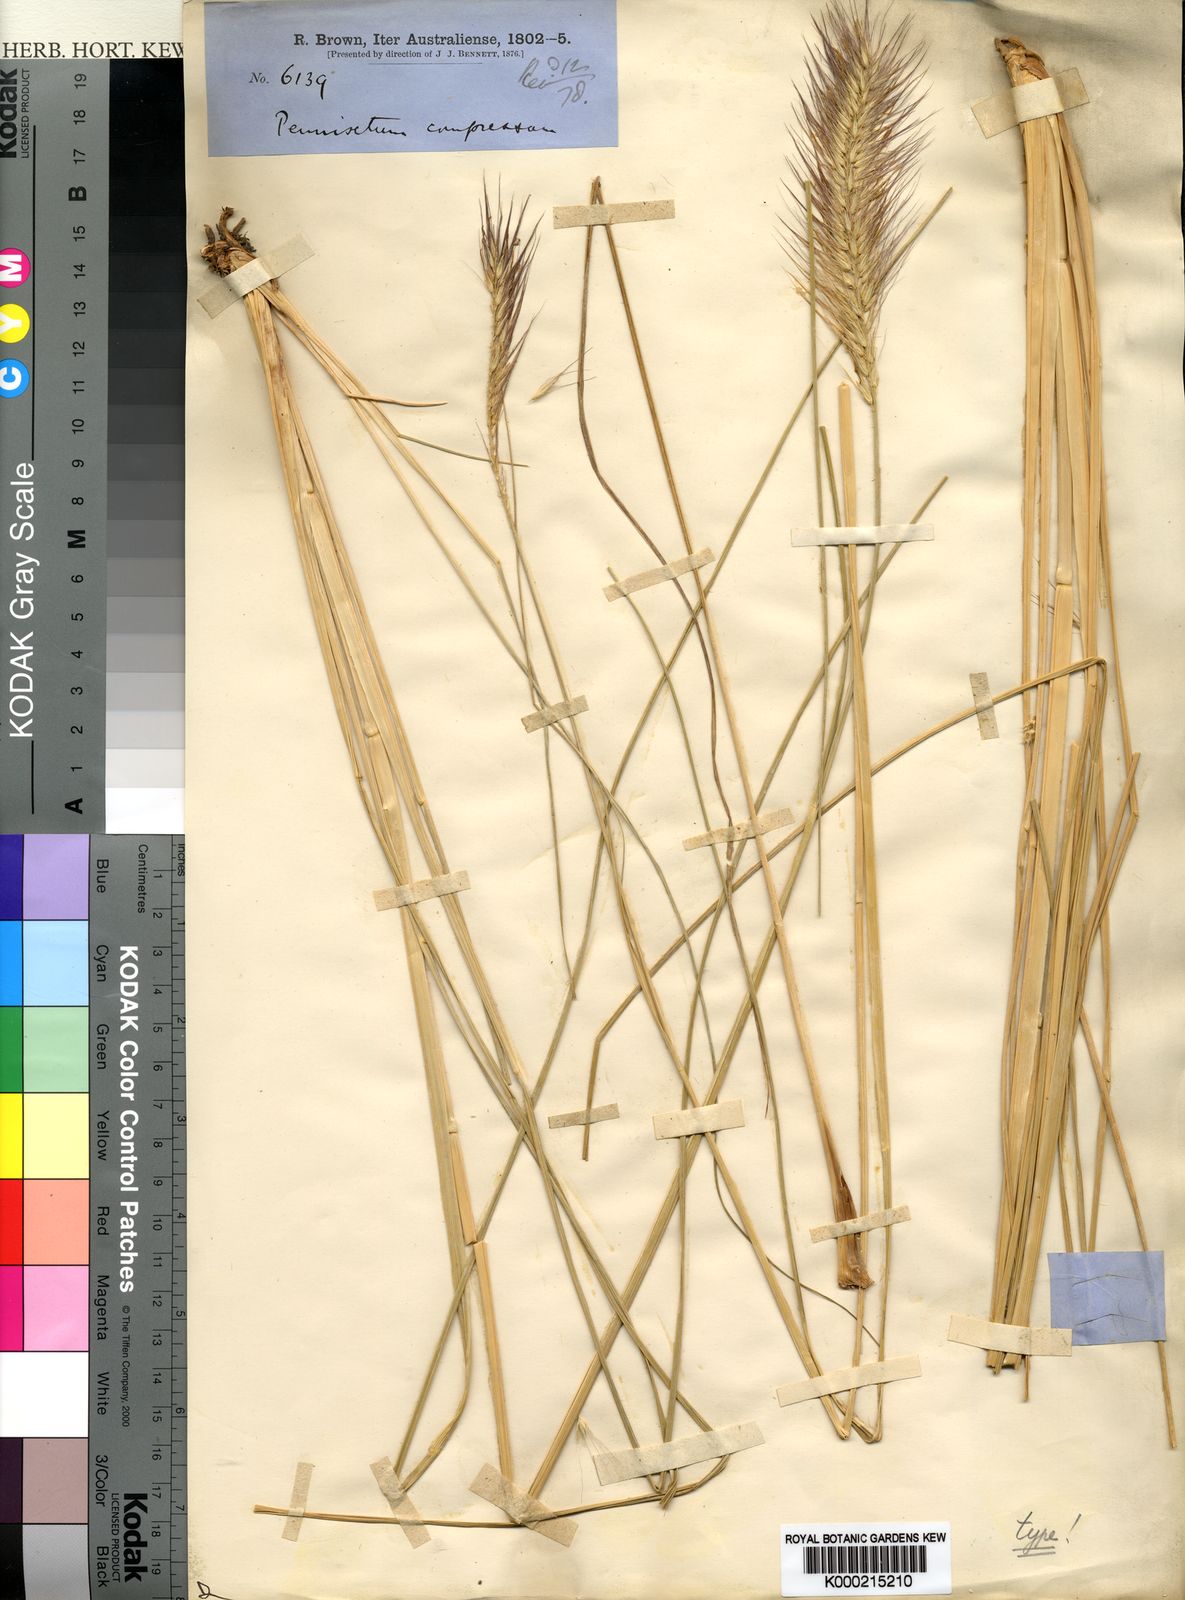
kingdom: Plantae
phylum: Tracheophyta
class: Liliopsida
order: Poales
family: Poaceae
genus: Cenchrus
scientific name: Cenchrus alopecuroides
